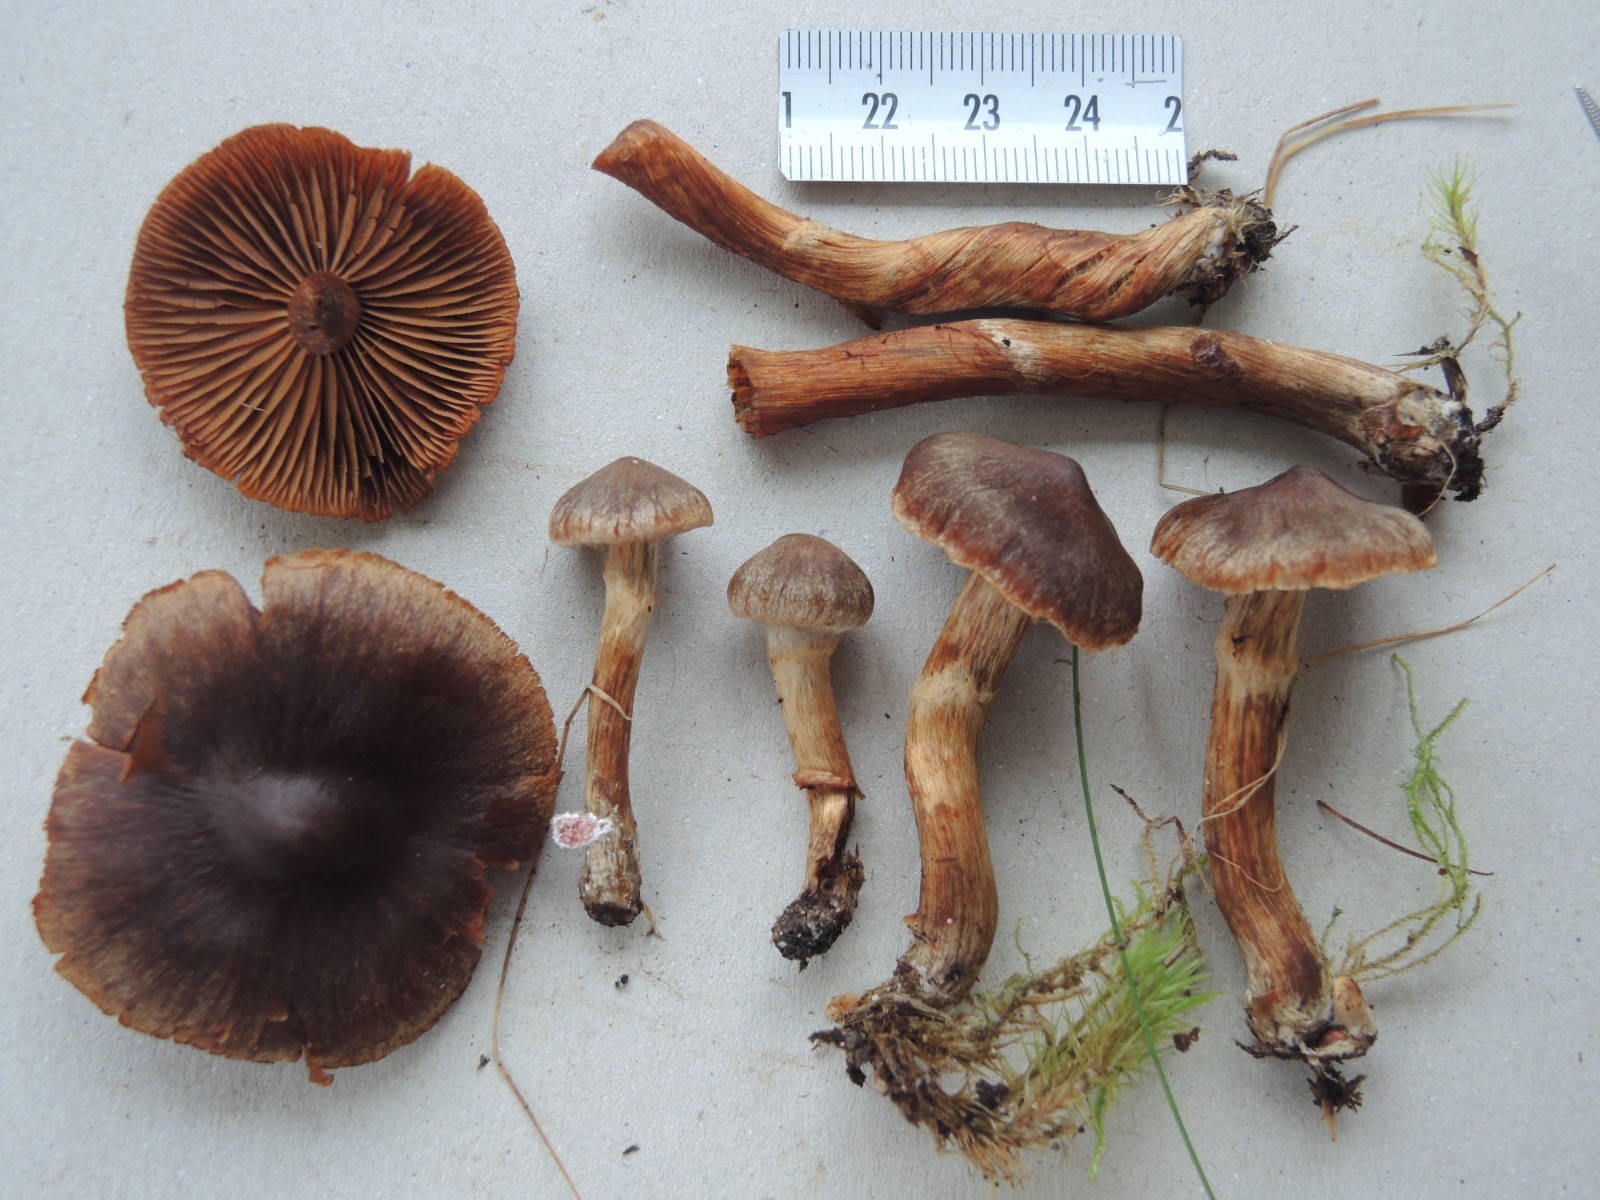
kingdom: Fungi
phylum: Basidiomycota
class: Agaricomycetes
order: Agaricales
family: Cortinariaceae
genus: Cortinarius
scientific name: Cortinarius fusisporus
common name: brunfnugget slørhat
